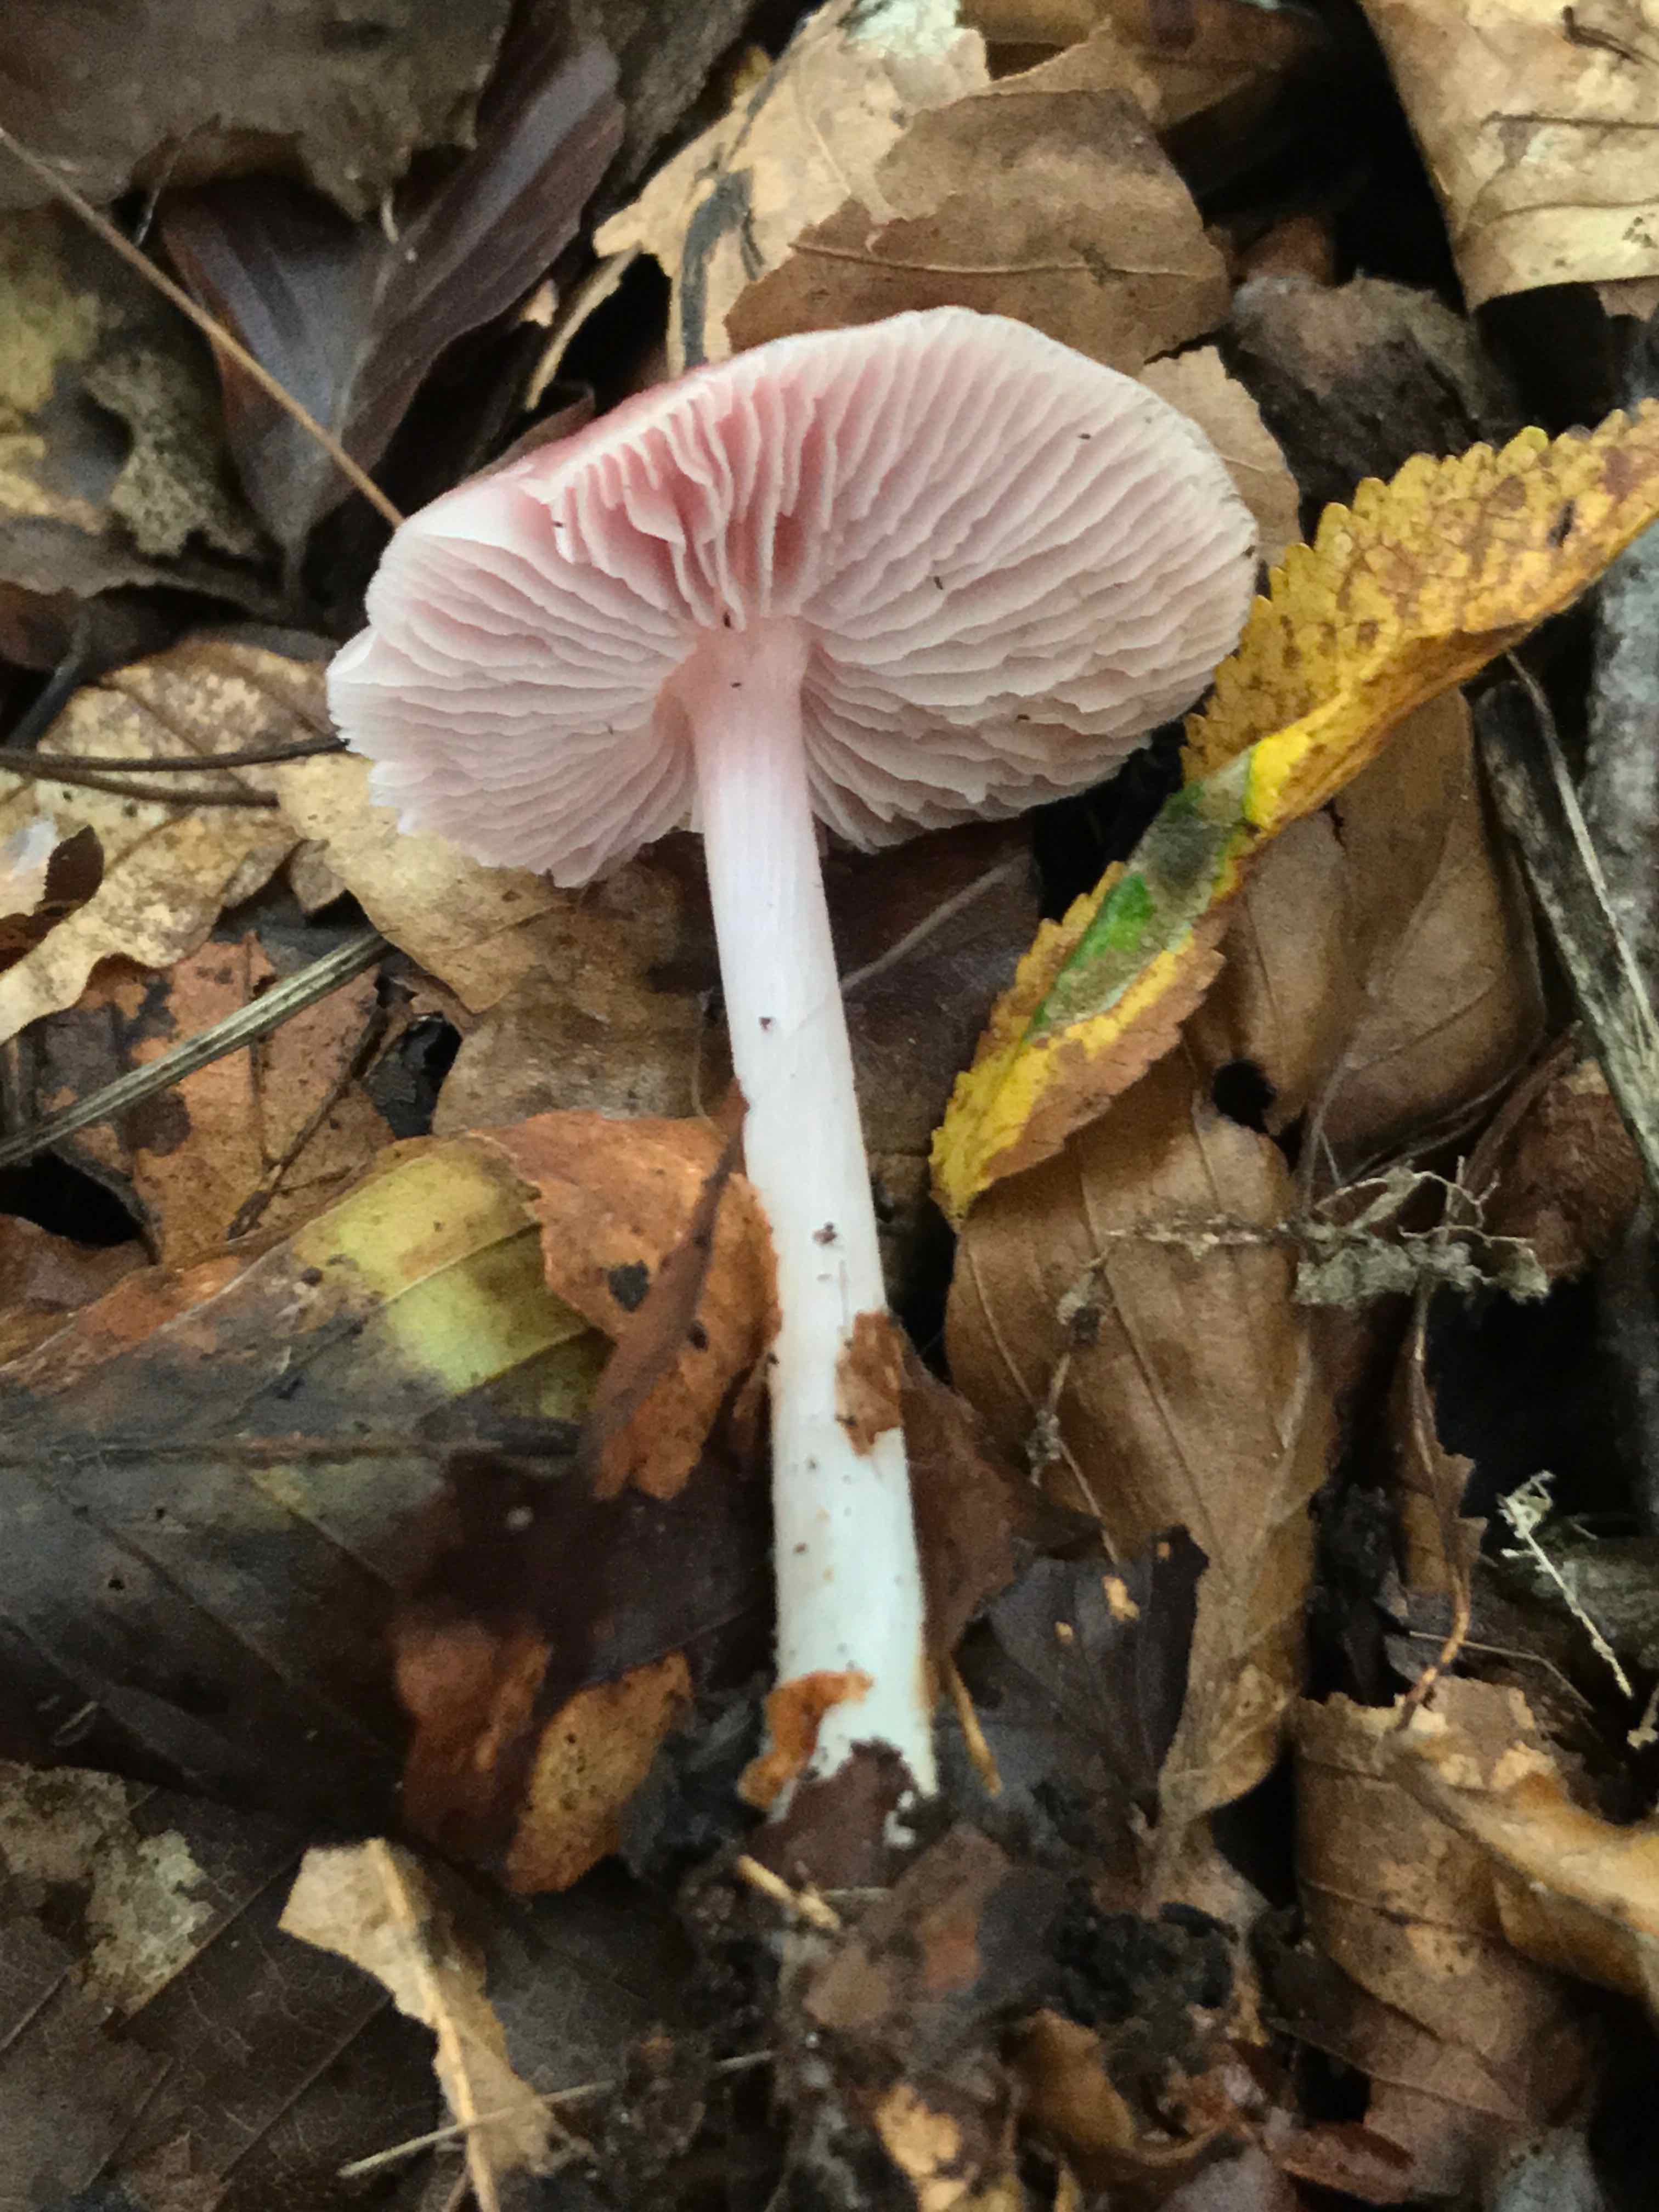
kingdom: Fungi
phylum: Basidiomycota
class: Agaricomycetes
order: Agaricales
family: Mycenaceae
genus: Mycena
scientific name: Mycena rosea
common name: rosa huesvamp
